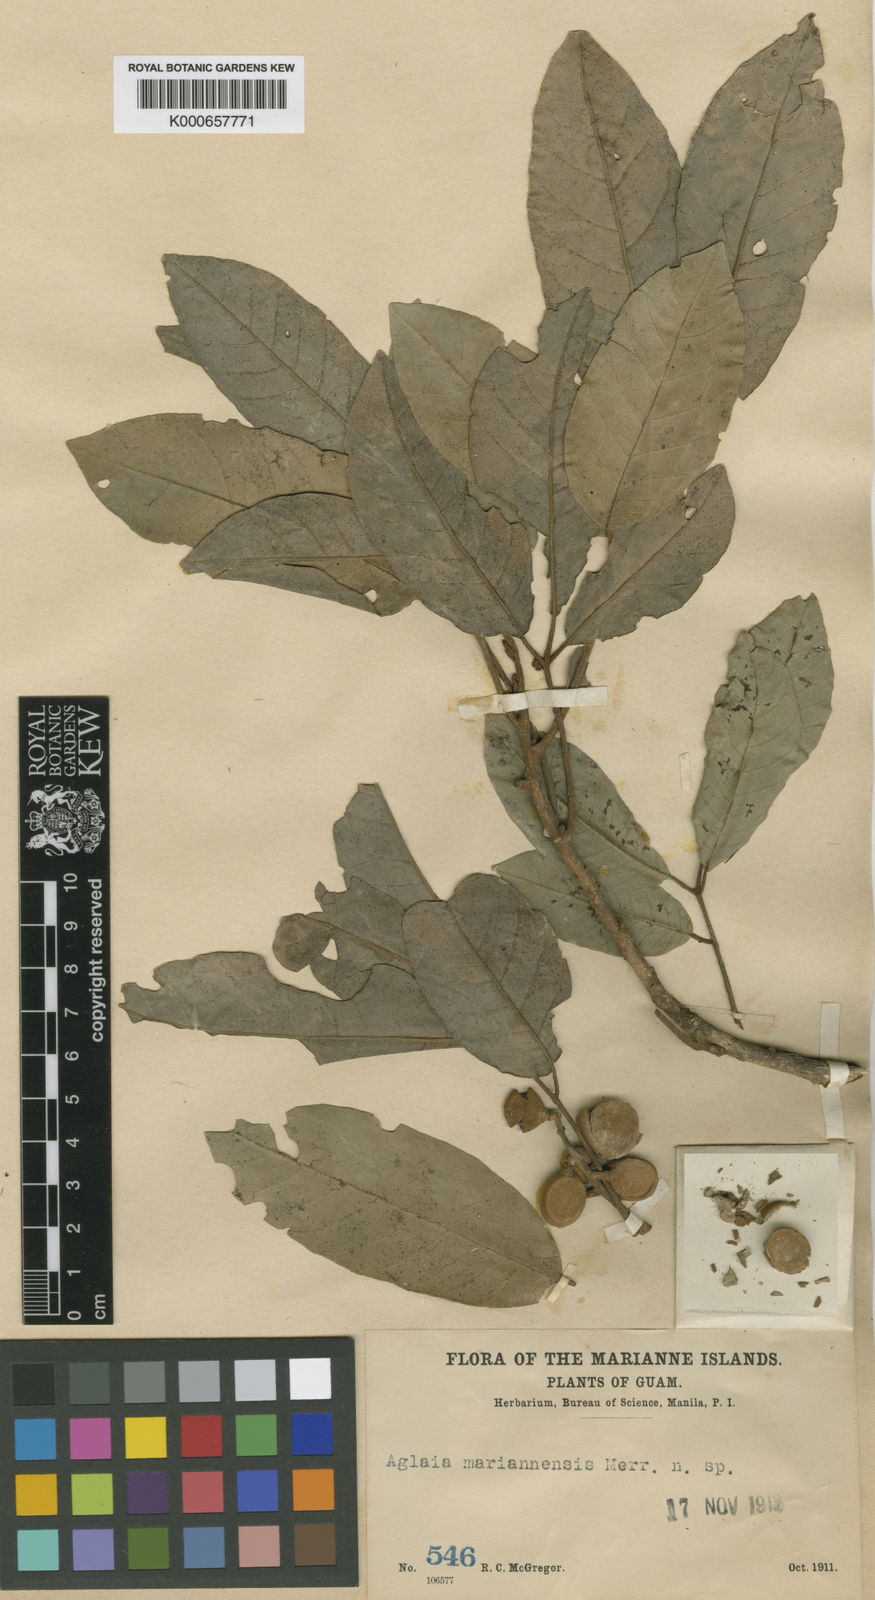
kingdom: Plantae
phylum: Tracheophyta
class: Magnoliopsida
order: Sapindales
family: Meliaceae
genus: Aglaia
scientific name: Aglaia mariannensis
